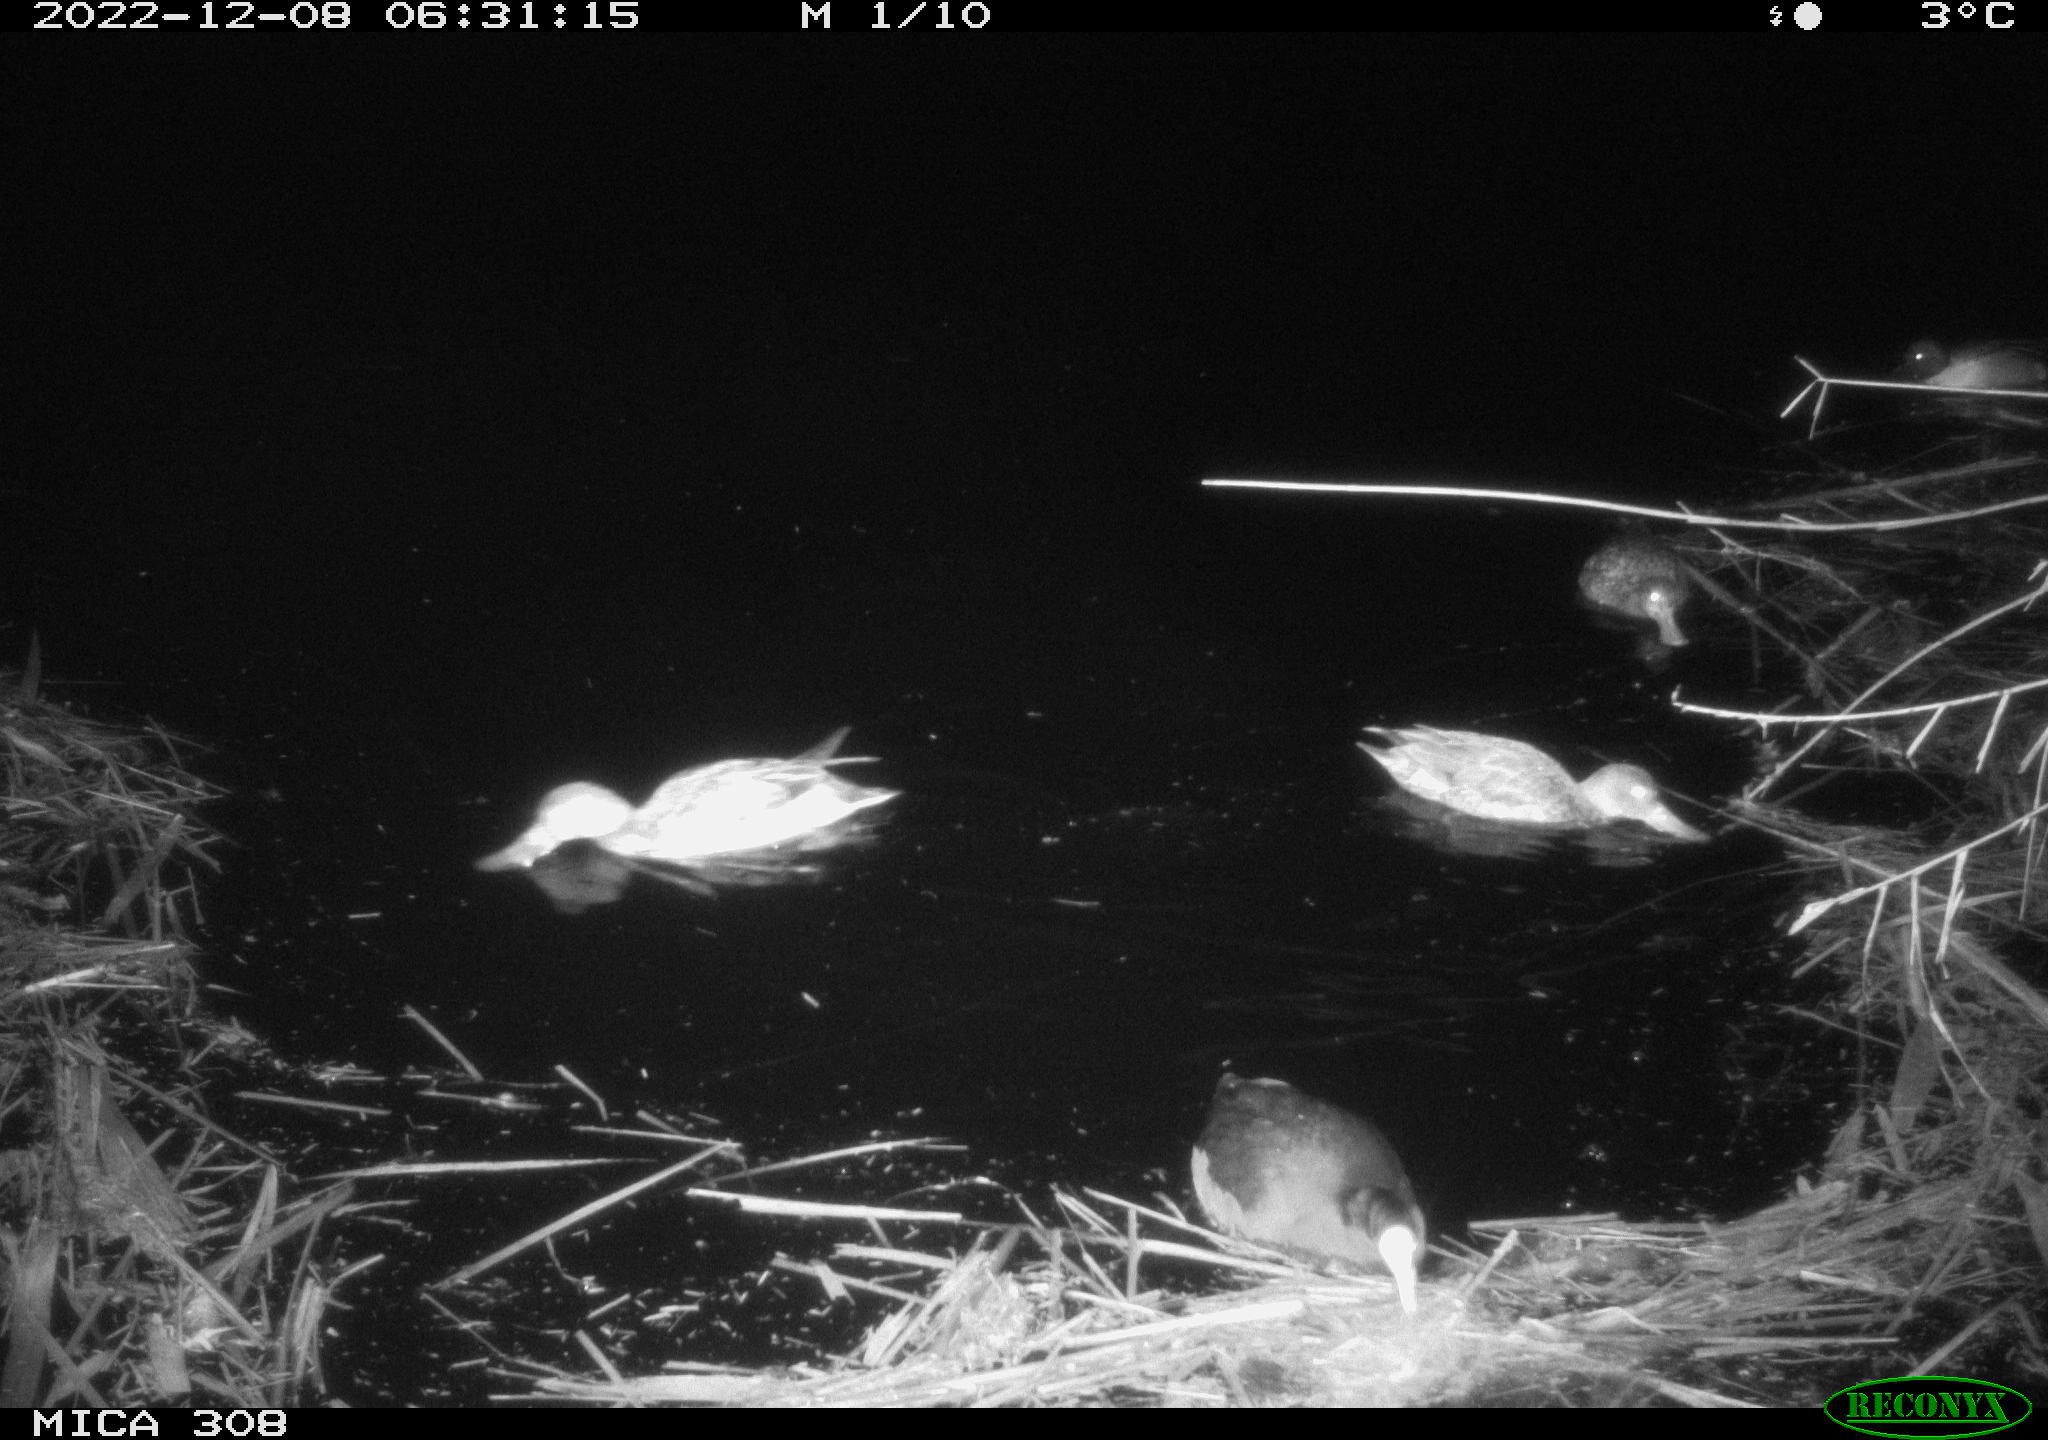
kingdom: Animalia
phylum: Chordata
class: Aves
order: Anseriformes
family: Anatidae
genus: Anas
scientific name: Anas
